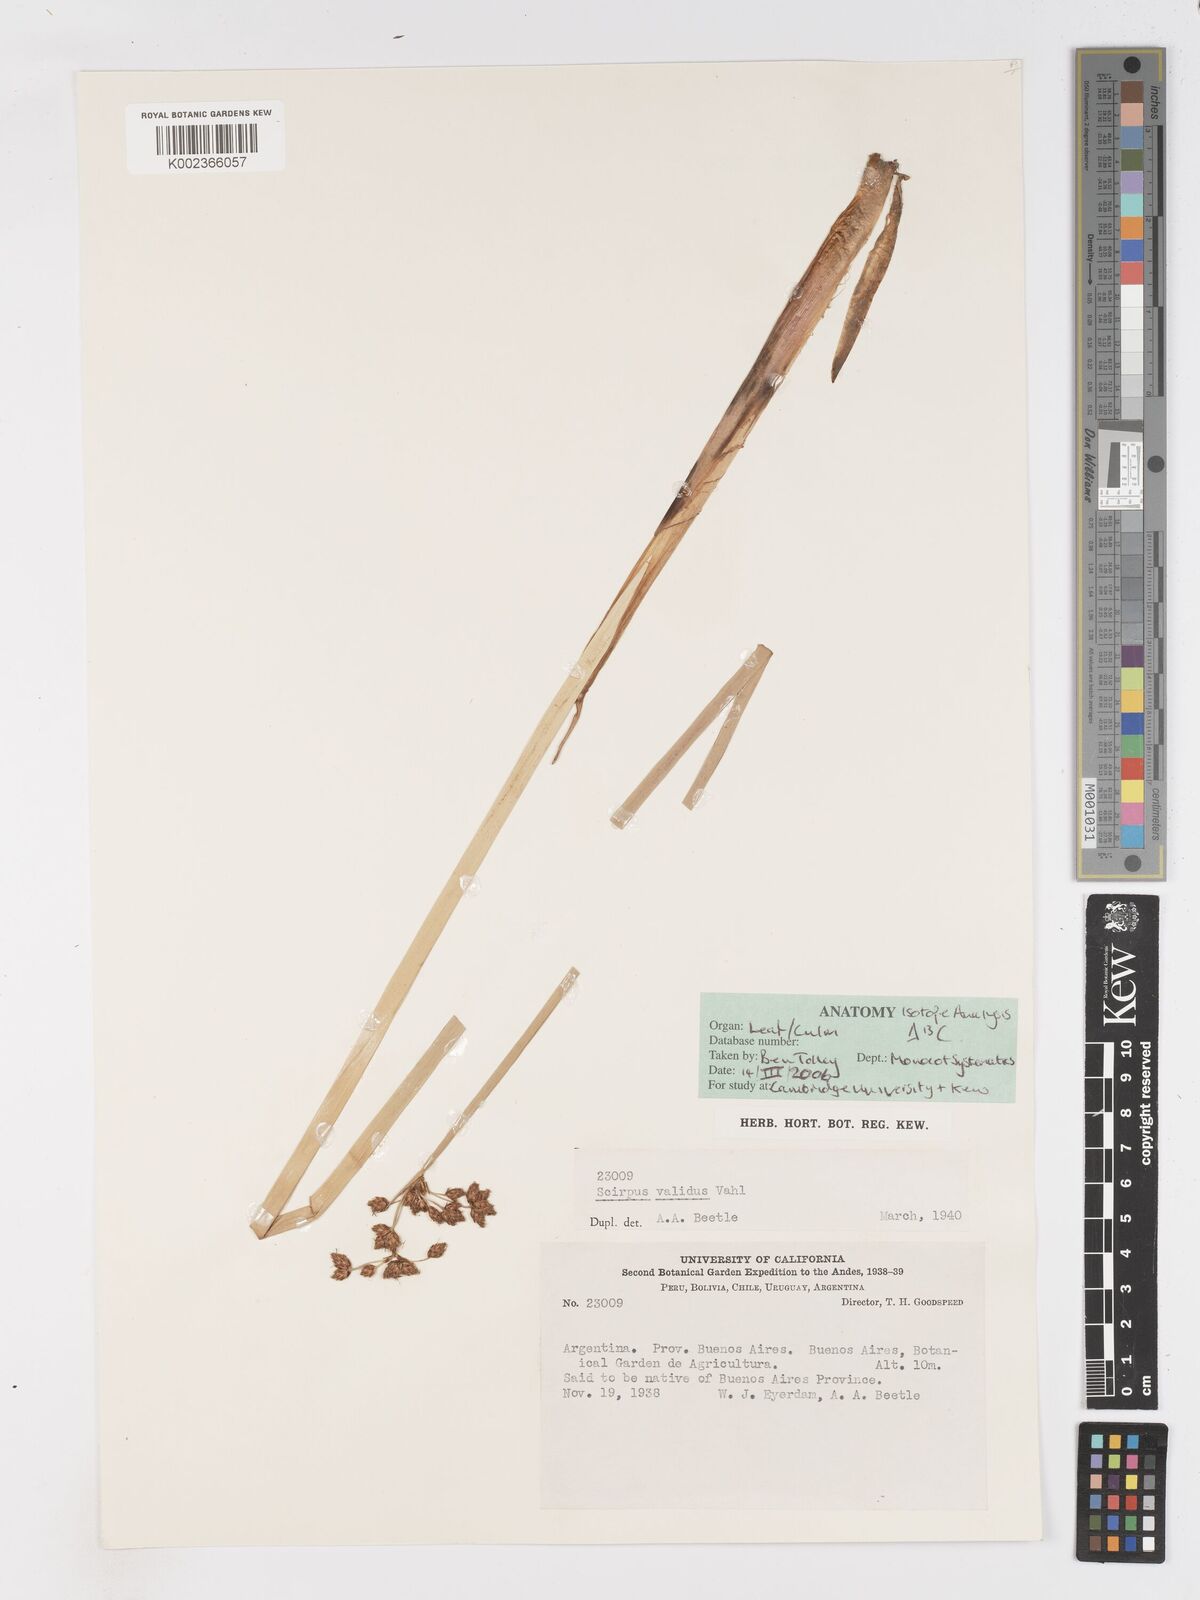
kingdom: Plantae
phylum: Tracheophyta
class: Liliopsida
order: Poales
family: Cyperaceae
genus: Schoenoplectus
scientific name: Schoenoplectus lacustris
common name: Common club-rush
